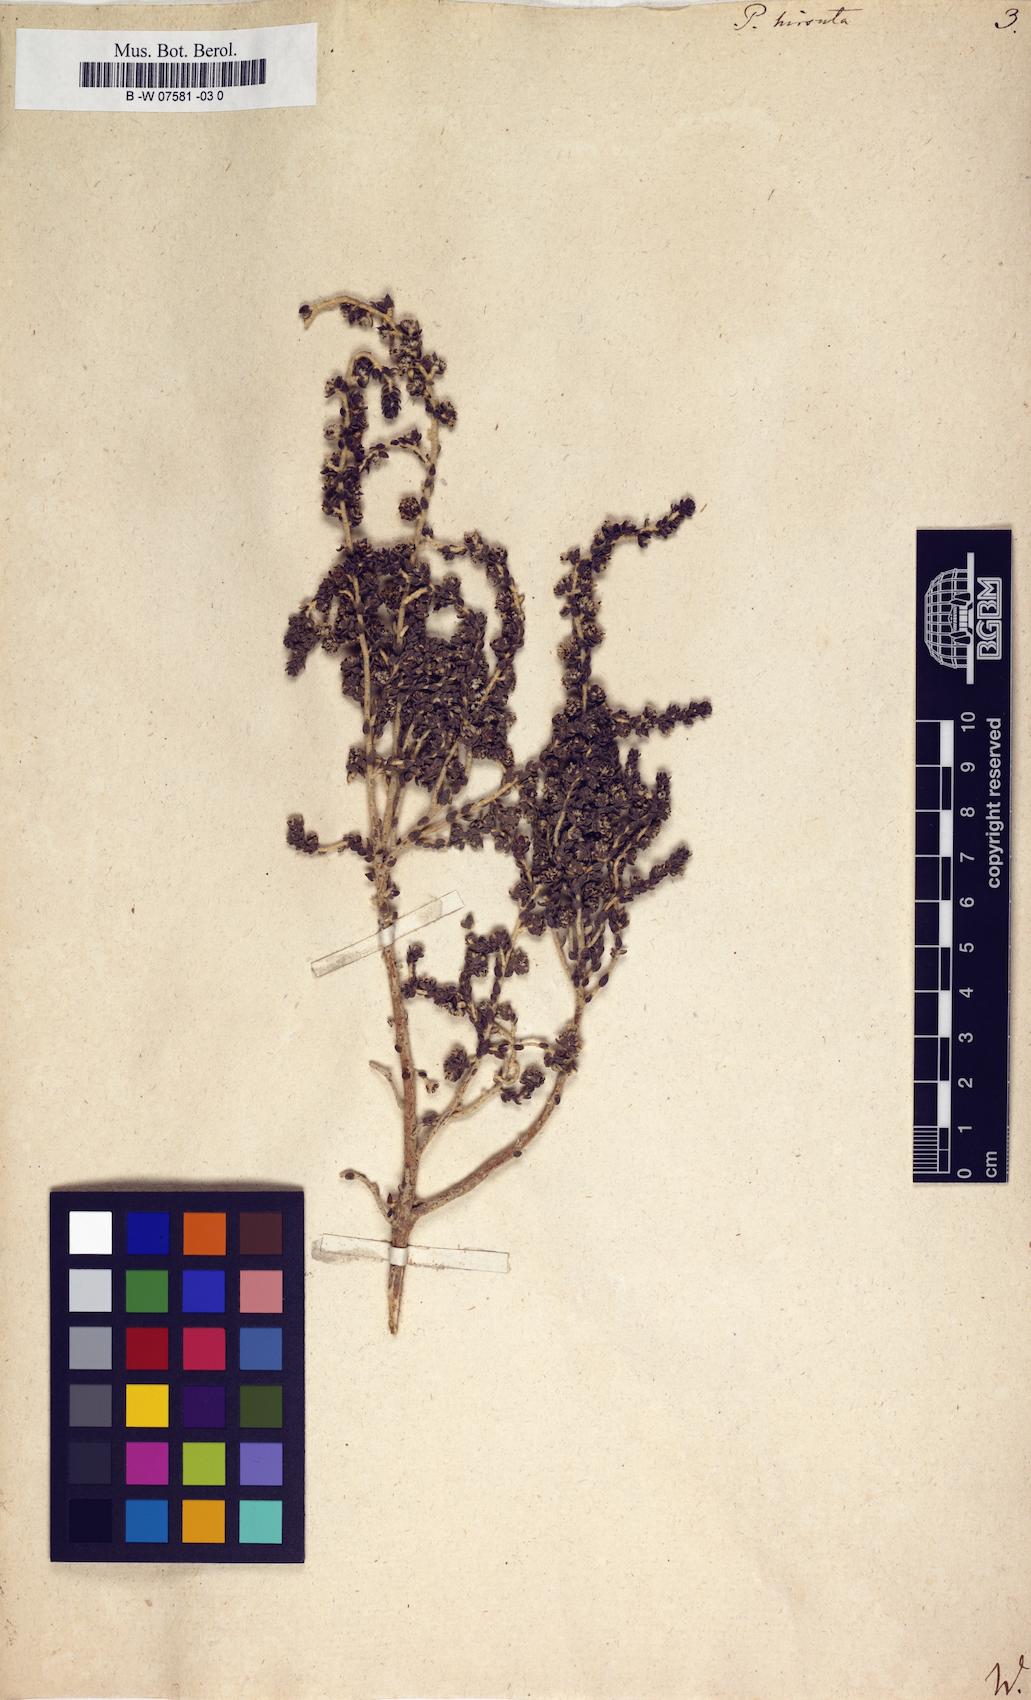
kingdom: Plantae
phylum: Tracheophyta
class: Magnoliopsida
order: Malvales
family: Thymelaeaceae
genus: Thymelaea
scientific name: Thymelaea
